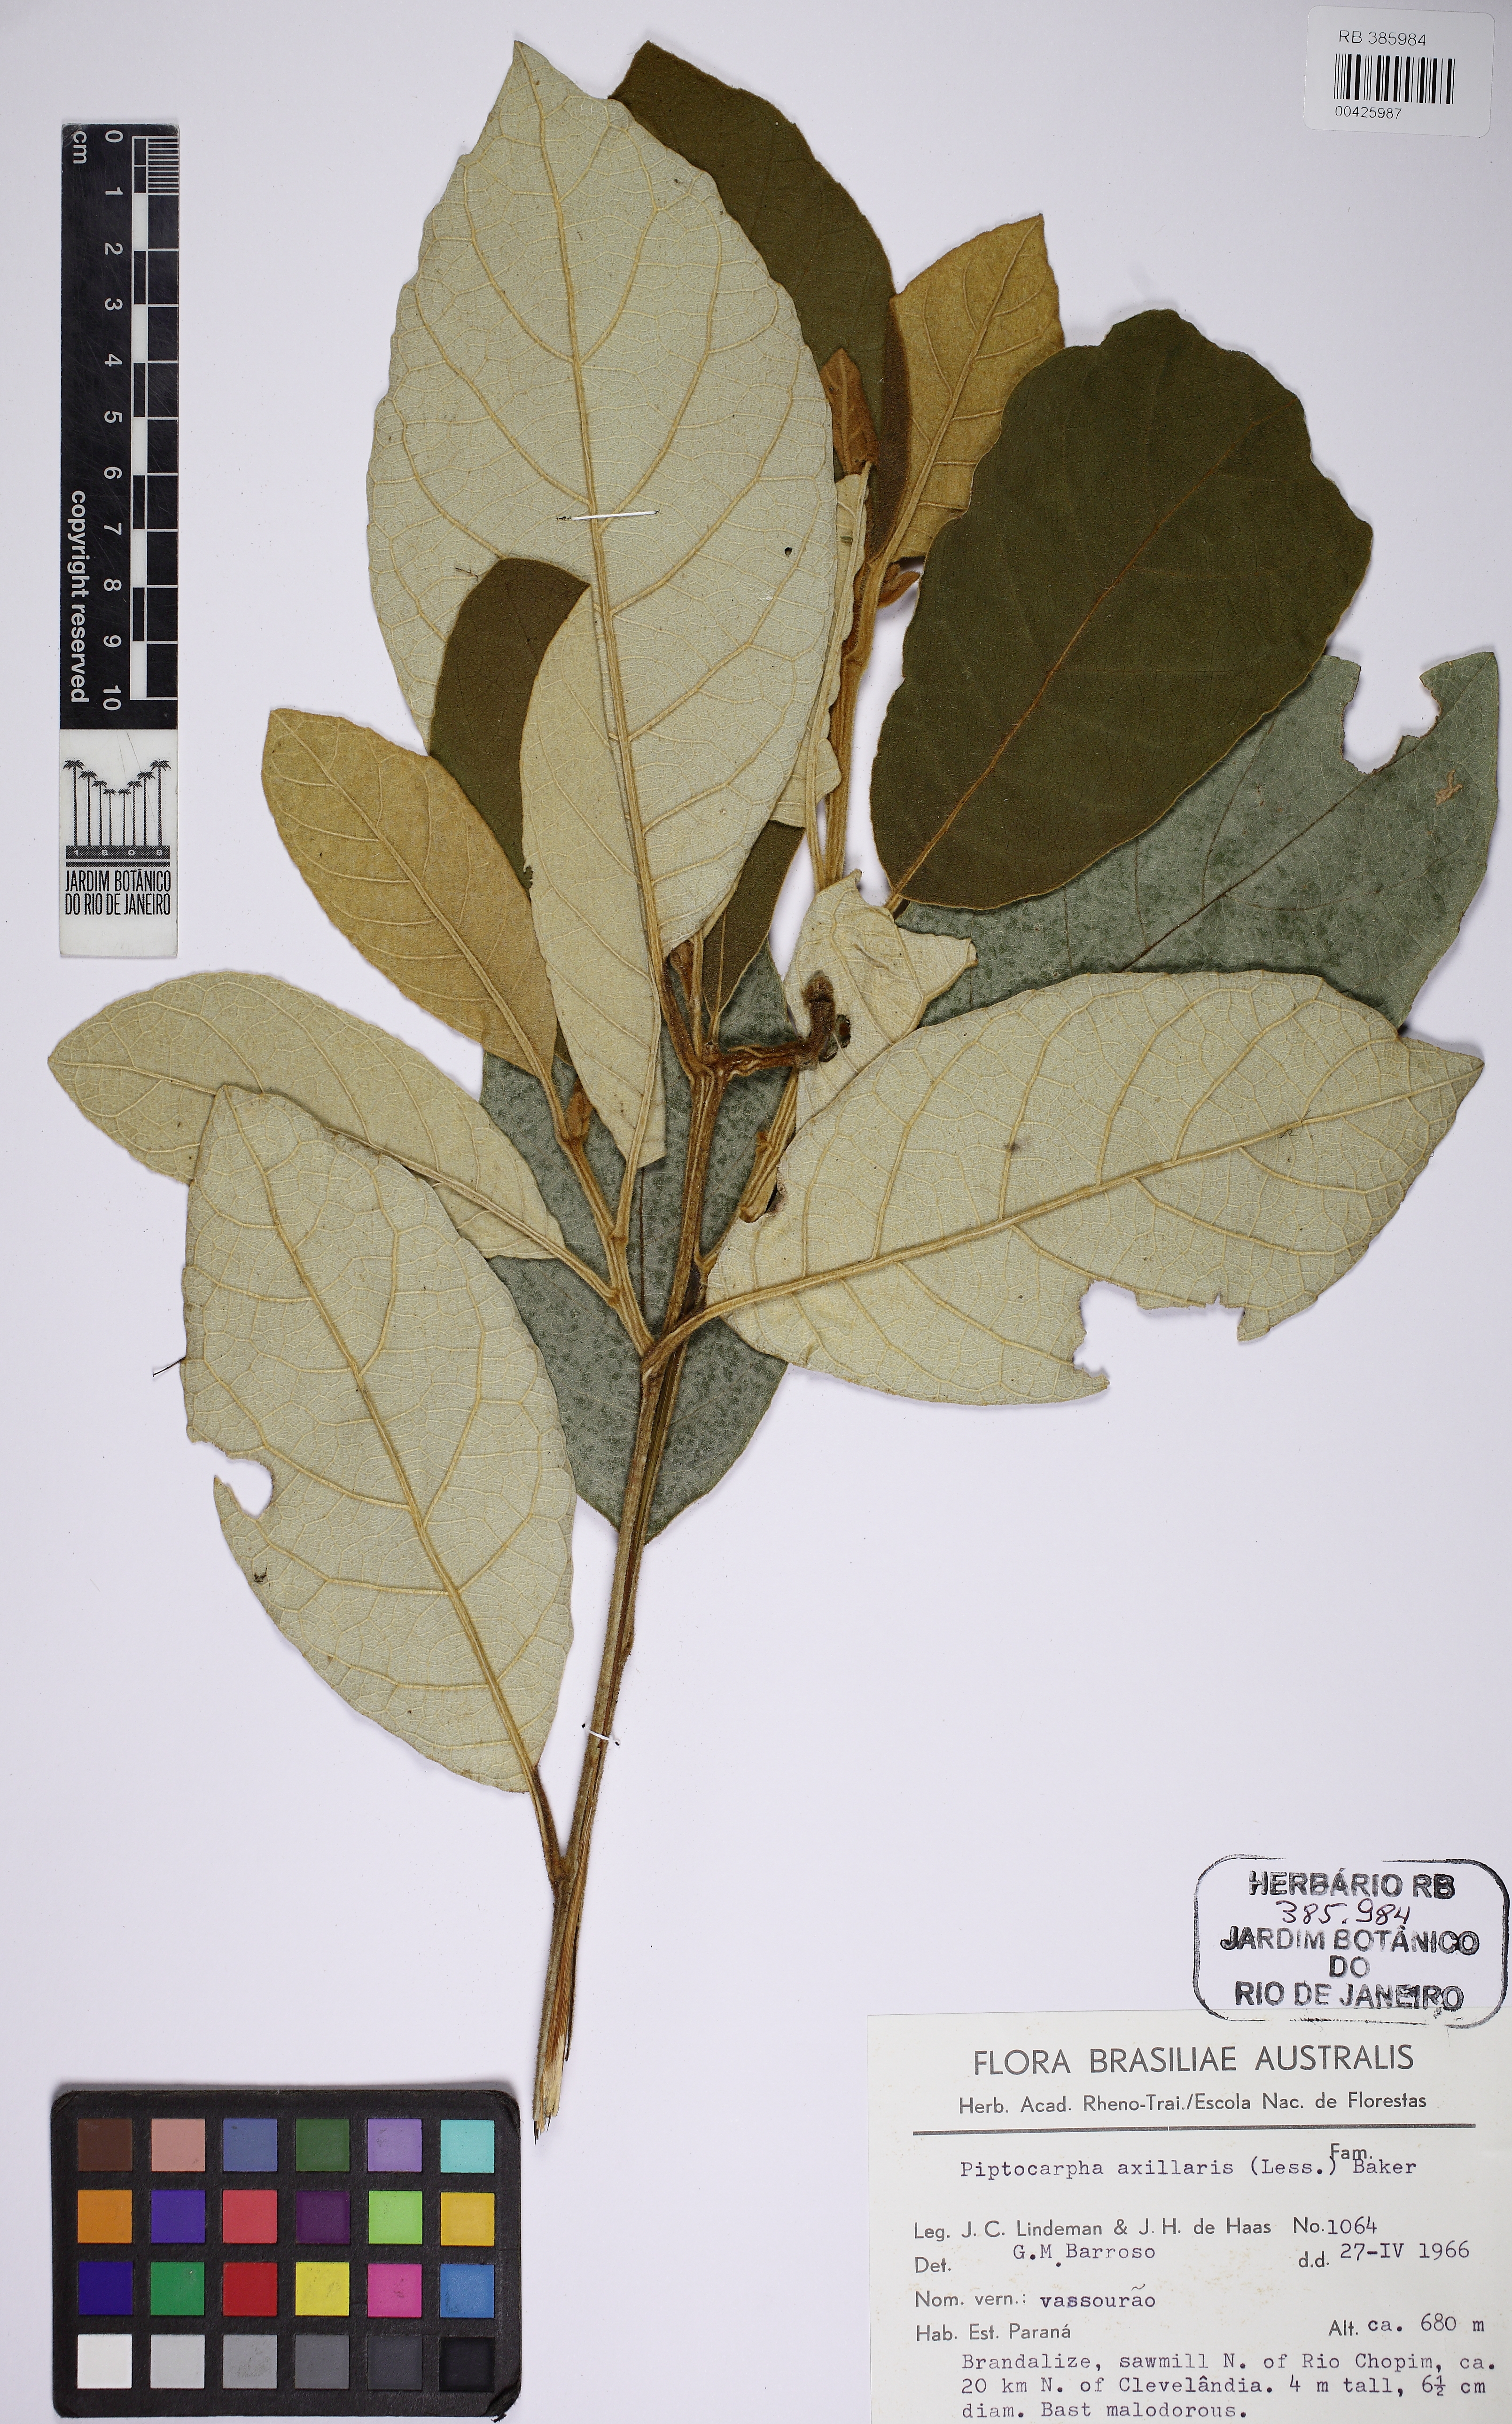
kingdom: Plantae
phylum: Tracheophyta
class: Magnoliopsida
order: Asterales
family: Asteraceae
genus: Piptocarpha
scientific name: Piptocarpha axillaris
